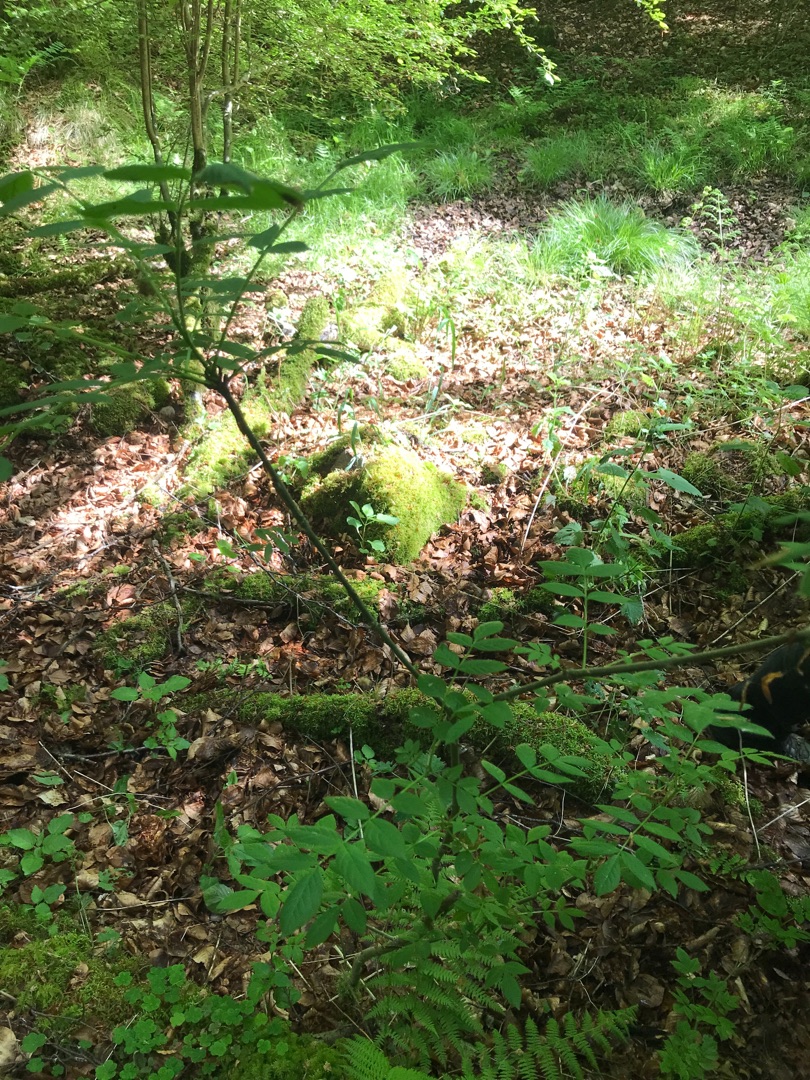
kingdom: Plantae
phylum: Tracheophyta
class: Magnoliopsida
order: Lamiales
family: Oleaceae
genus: Fraxinus
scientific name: Fraxinus excelsior
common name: Ask
